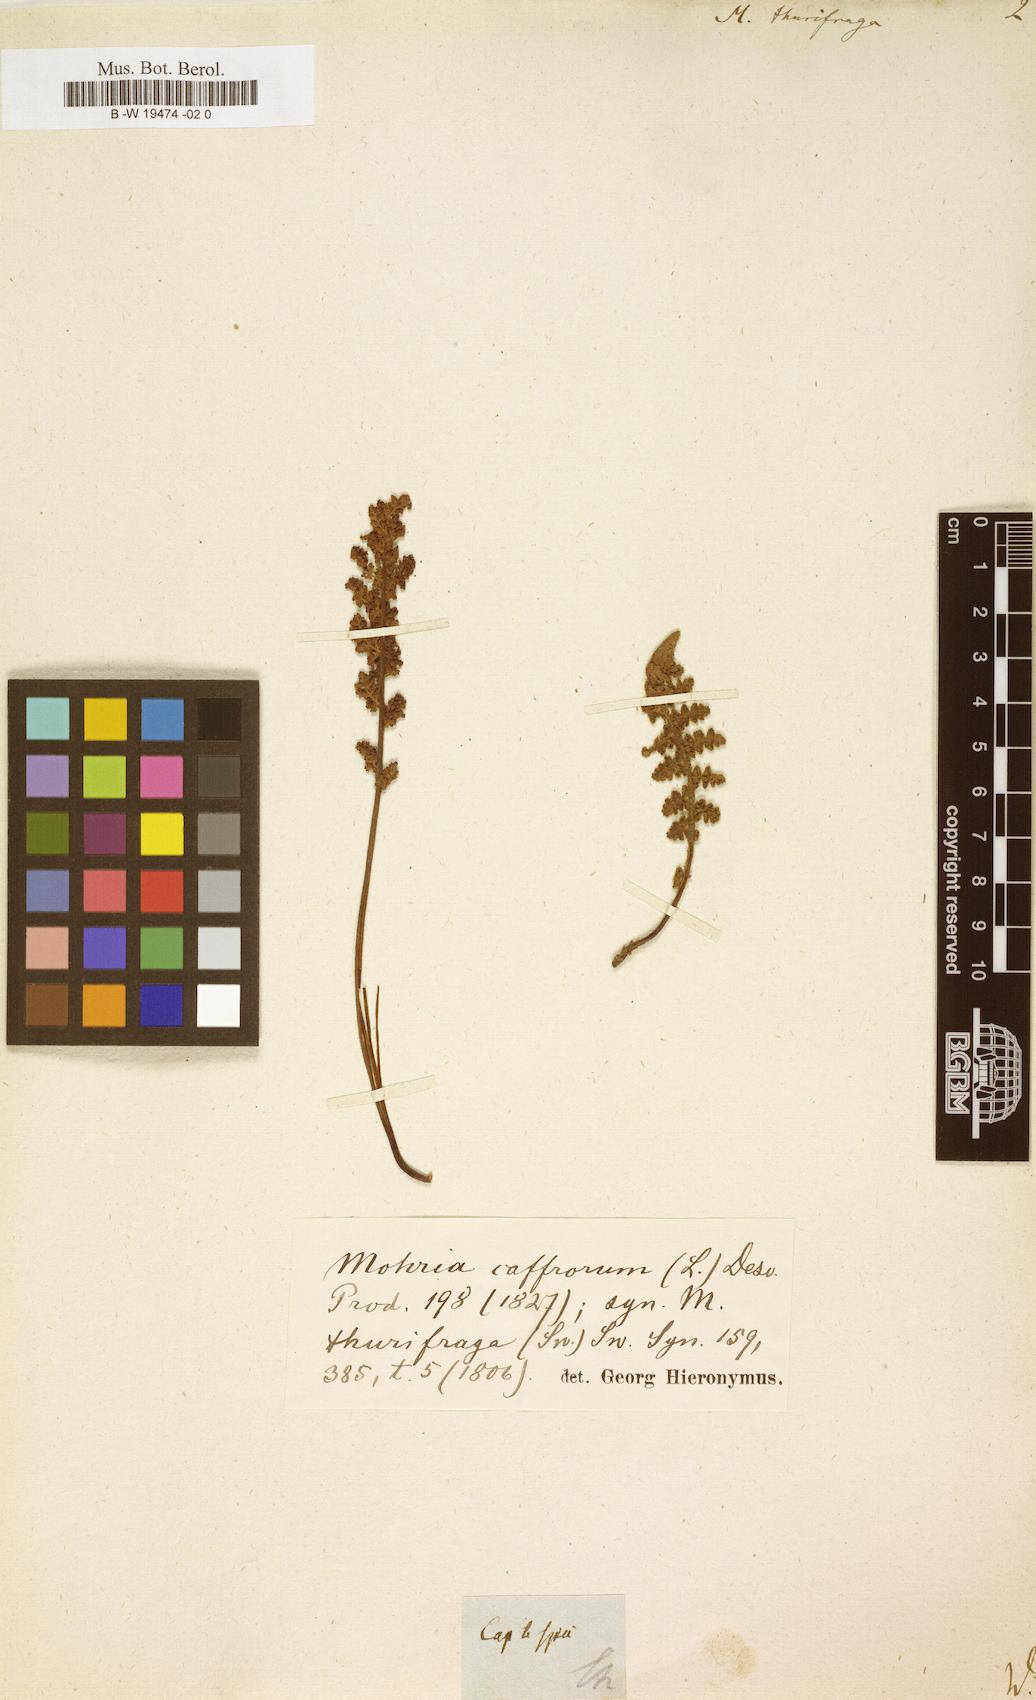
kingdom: Plantae
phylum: Tracheophyta
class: Polypodiopsida
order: Schizaeales
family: Anemiaceae
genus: Anemia
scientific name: Anemia caffrorum
